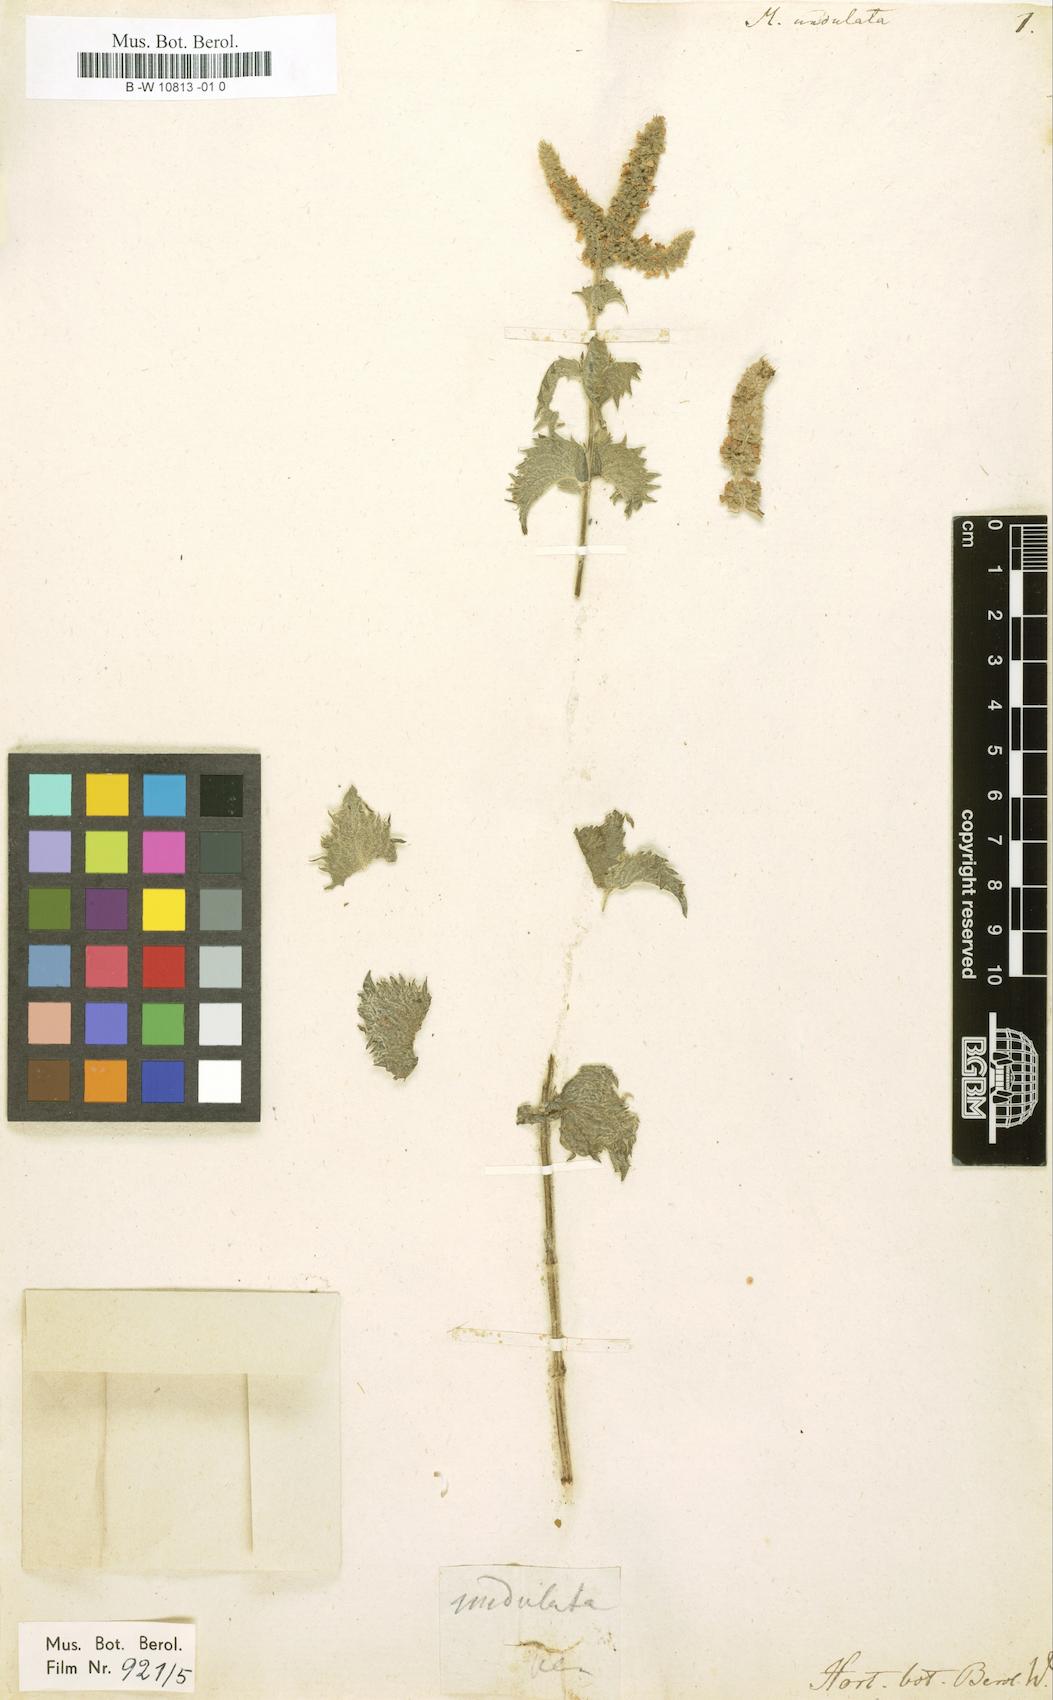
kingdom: Plantae
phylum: Tracheophyta
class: Magnoliopsida
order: Lamiales
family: Lamiaceae
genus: Mentha
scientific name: Mentha spicata
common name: Spearmint
